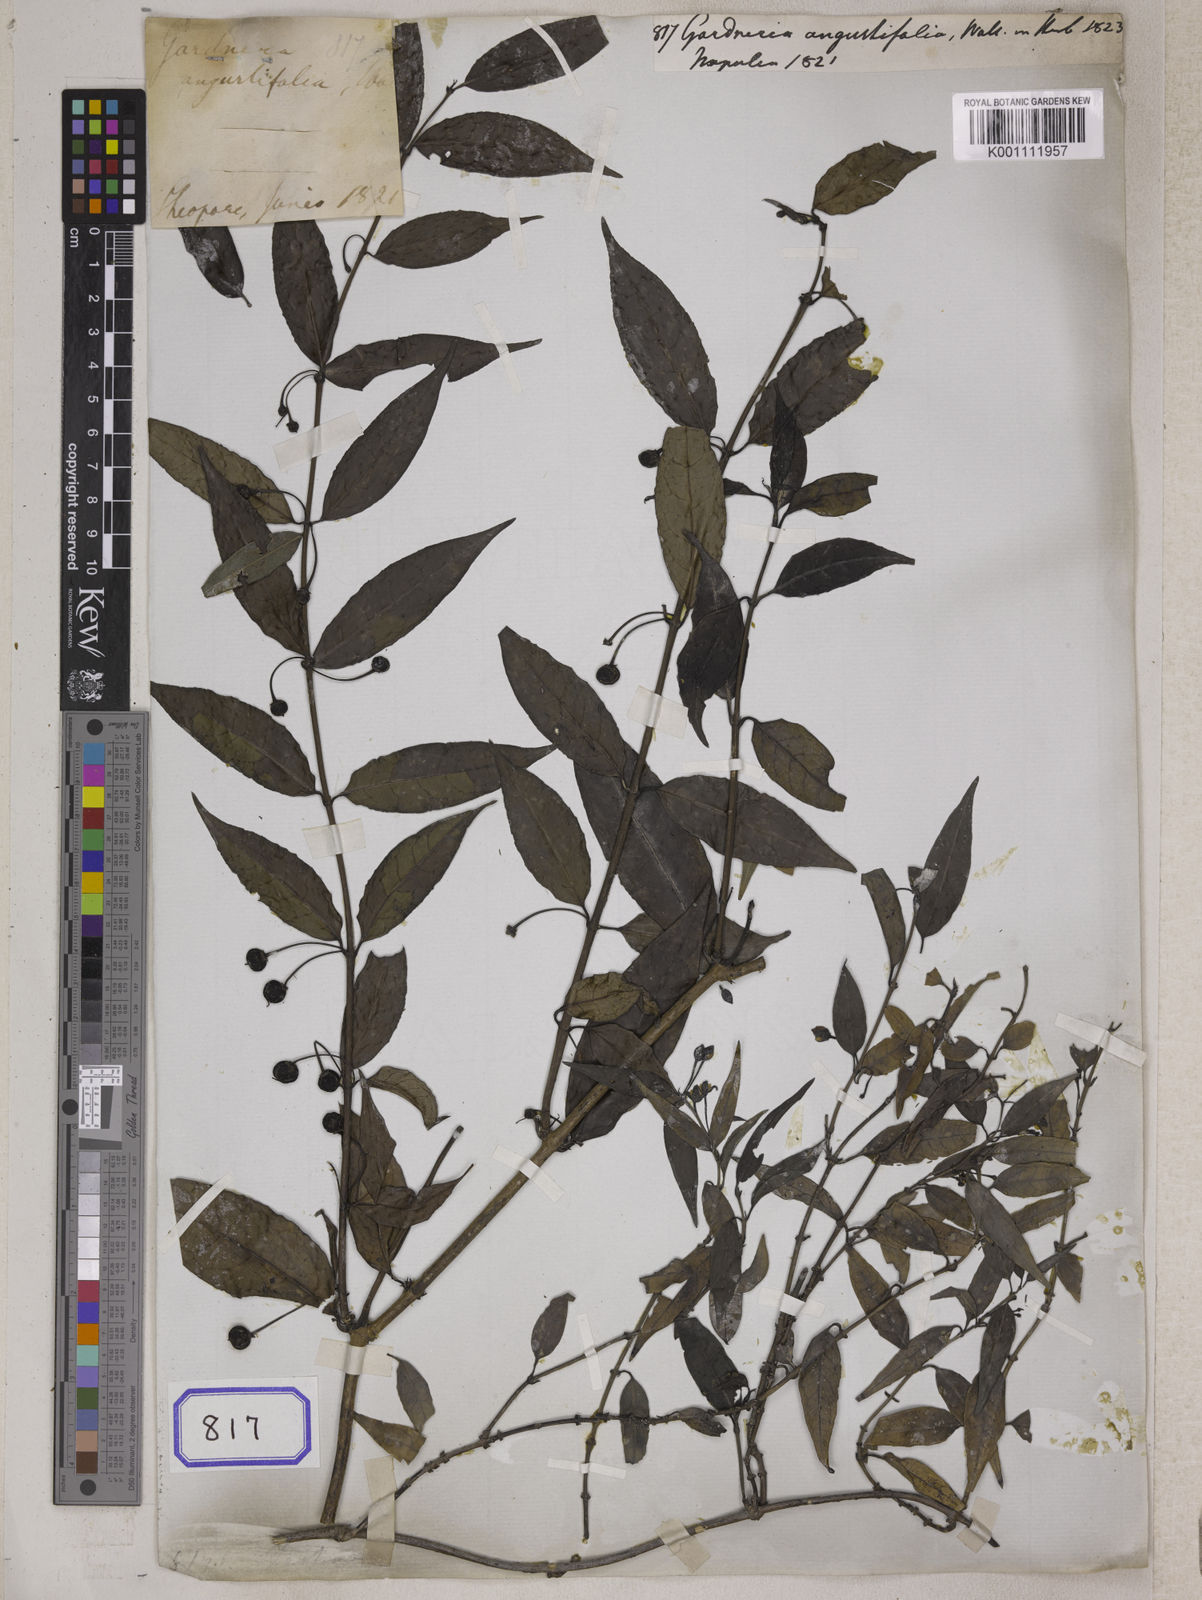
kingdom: Plantae
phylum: Tracheophyta
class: Magnoliopsida
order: Gentianales
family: Loganiaceae
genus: Gardneria
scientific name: Gardneria angustifolia
